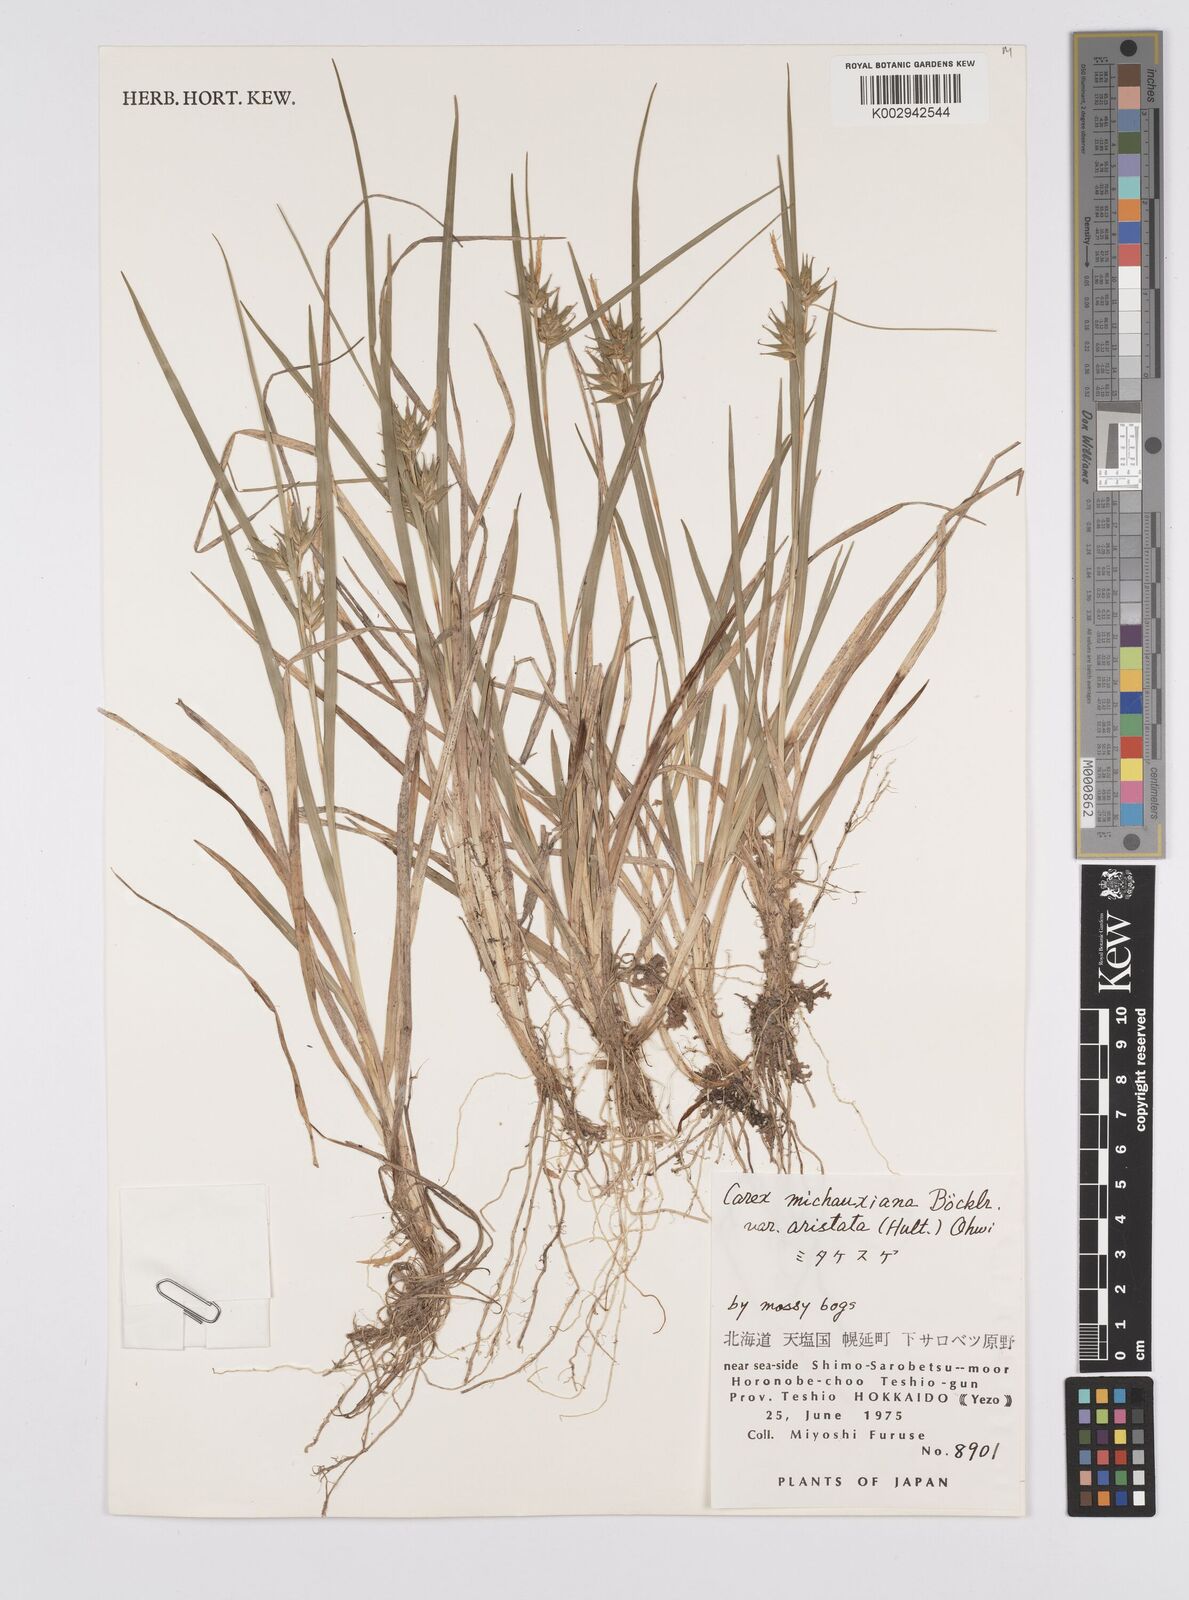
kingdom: Plantae
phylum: Tracheophyta
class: Liliopsida
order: Poales
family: Cyperaceae
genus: Carex
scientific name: Carex michauxiana
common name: Michaux's sedge
